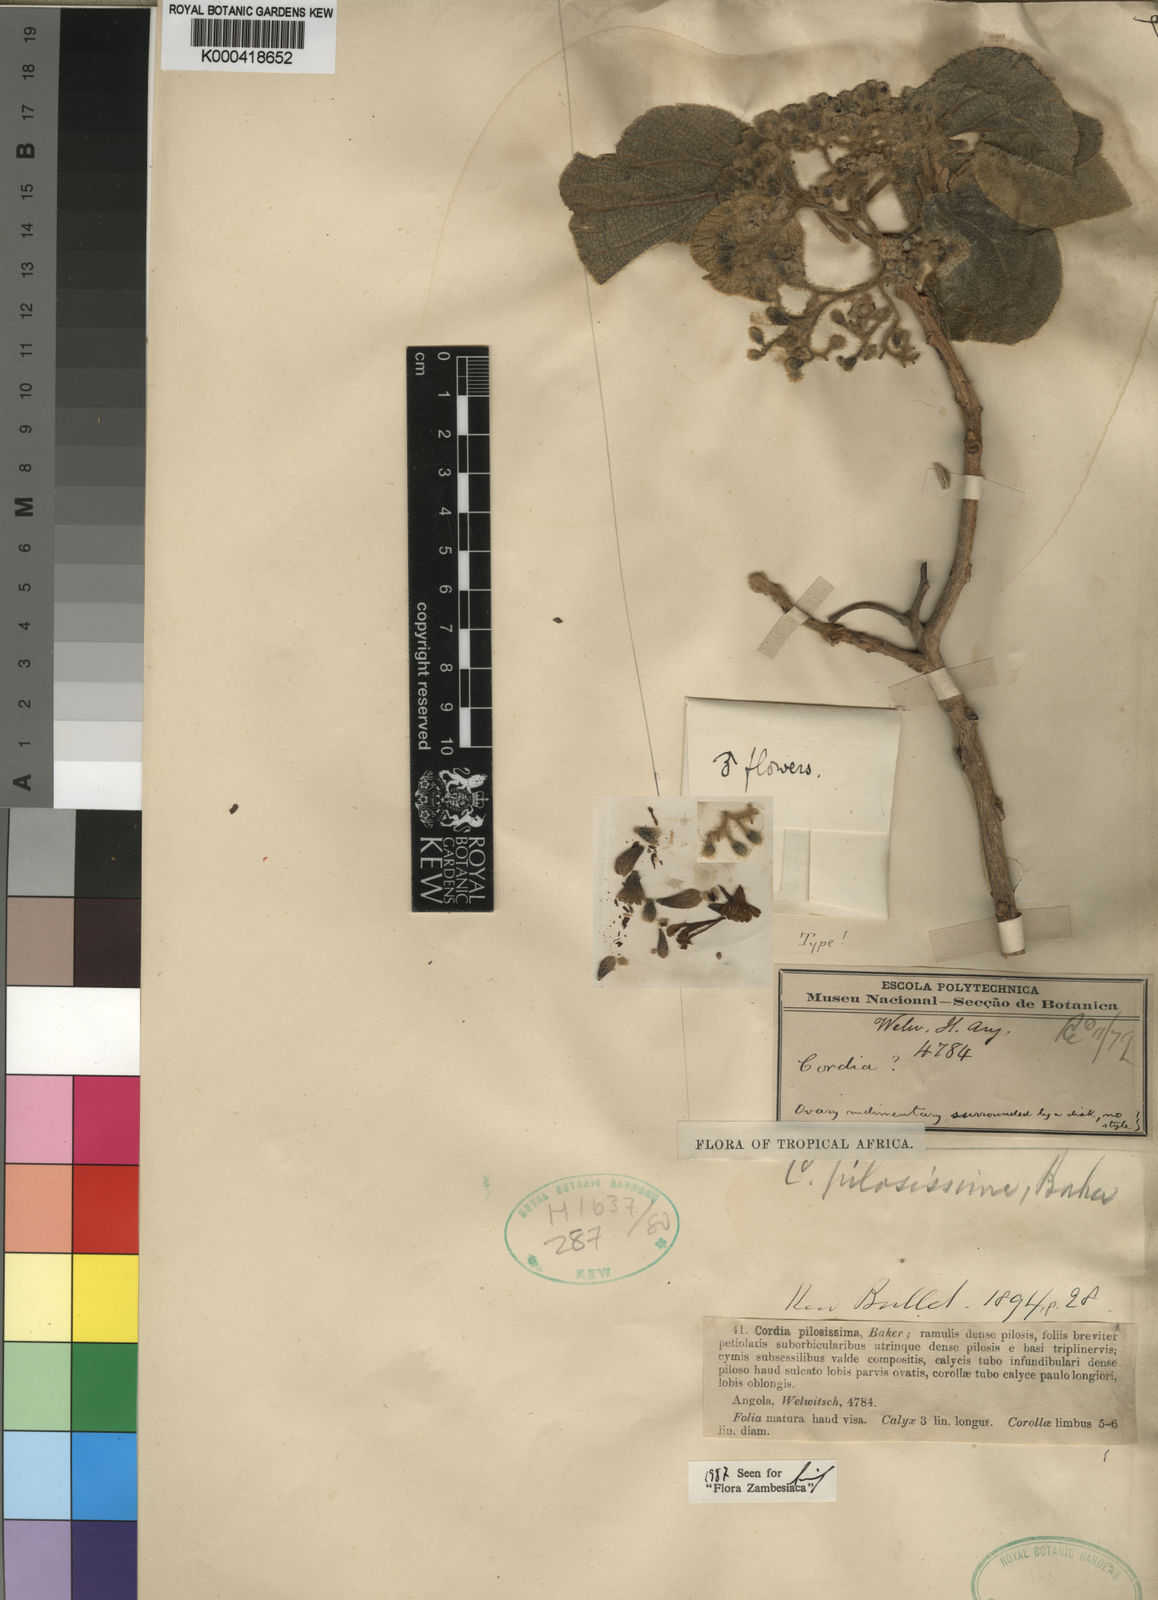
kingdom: Plantae
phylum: Tracheophyta
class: Magnoliopsida
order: Boraginales
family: Cordiaceae
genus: Cordia
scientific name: Cordia pilosissima
